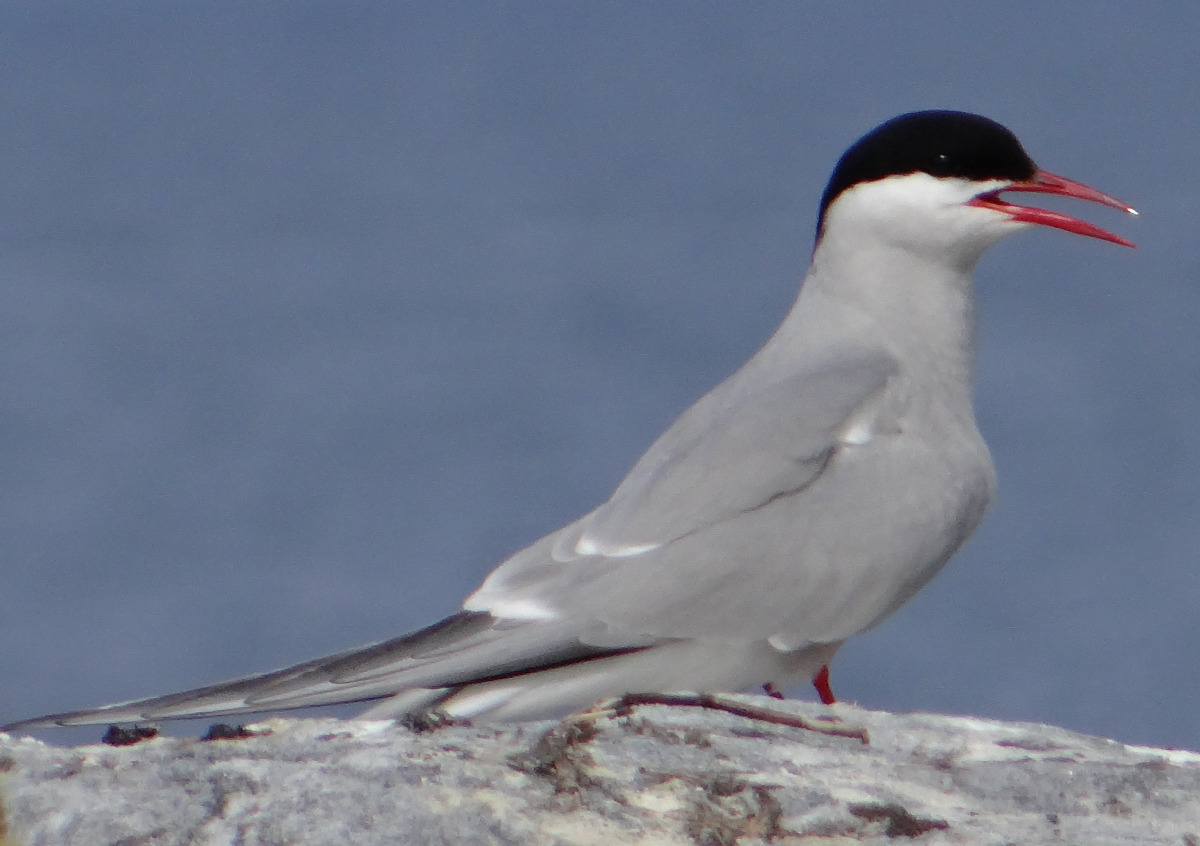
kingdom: Animalia
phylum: Chordata
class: Aves
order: Charadriiformes
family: Laridae
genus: Sterna
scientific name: Sterna paradisaea
